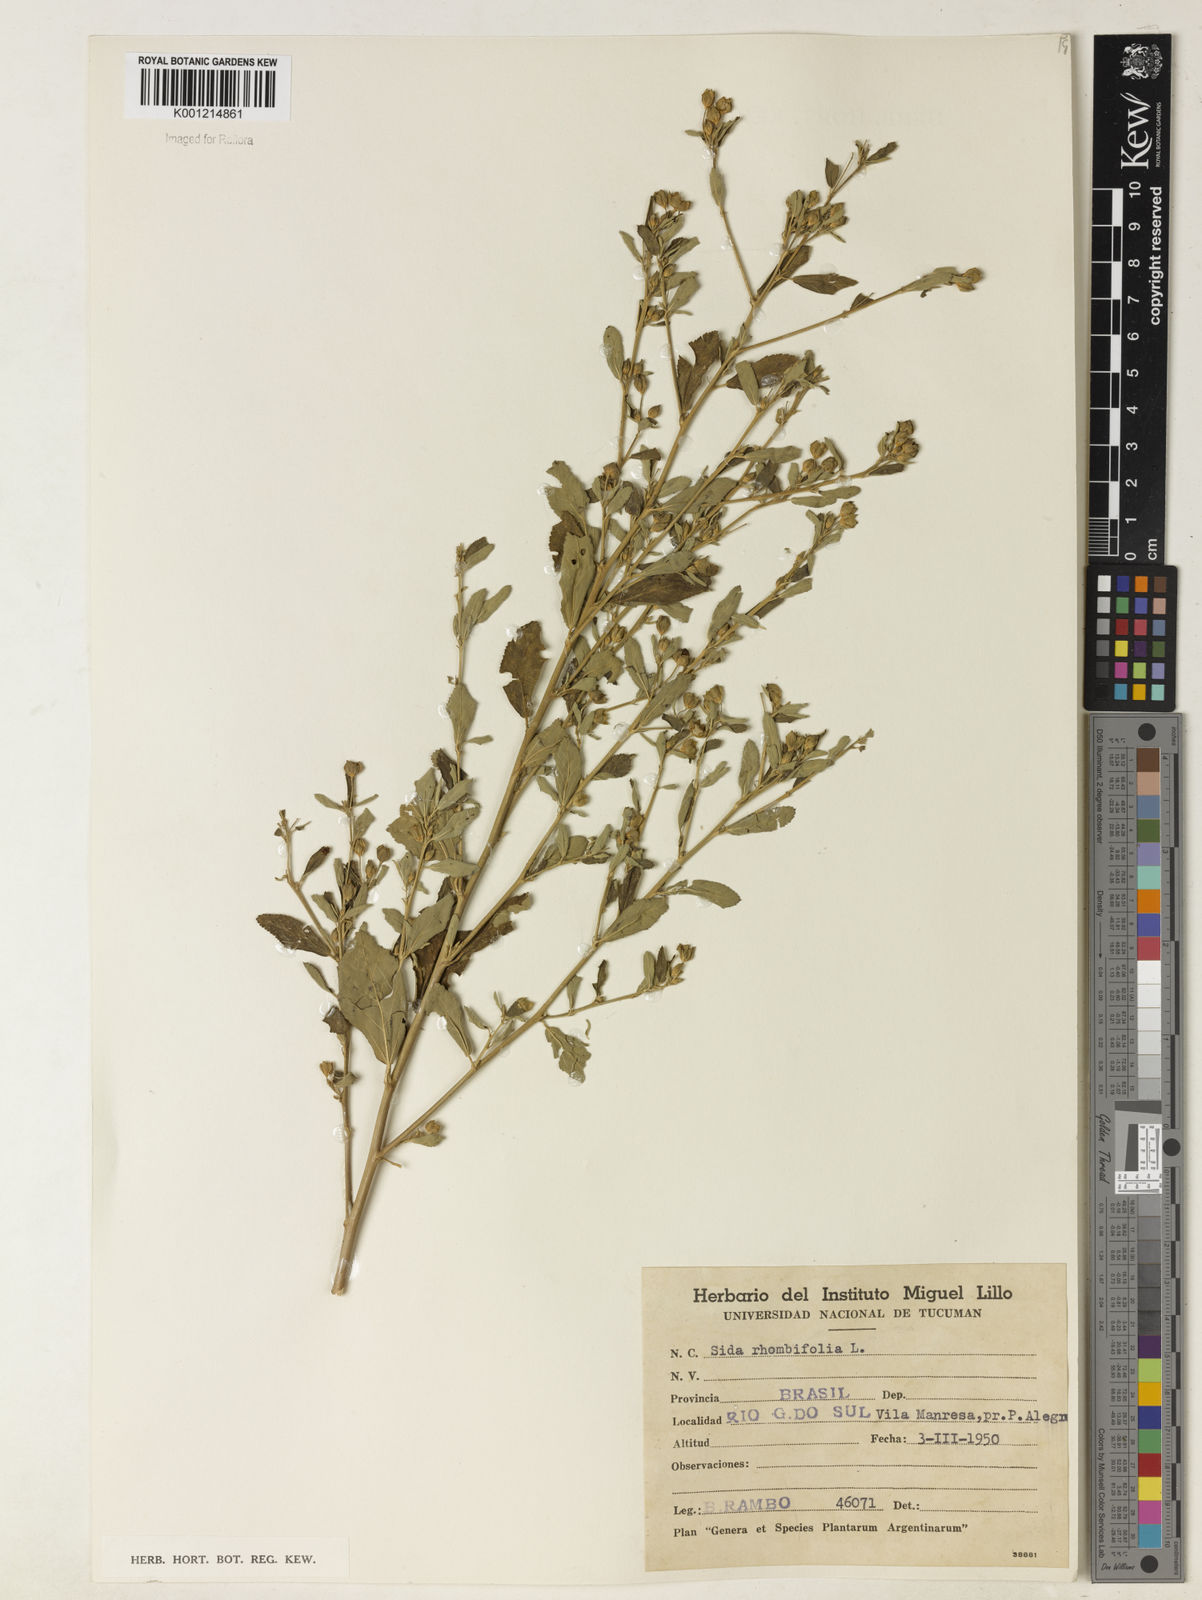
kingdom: Plantae
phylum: Tracheophyta
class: Magnoliopsida
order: Malvales
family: Malvaceae
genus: Sida
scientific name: Sida rhombifolia
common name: Queensland-hemp
